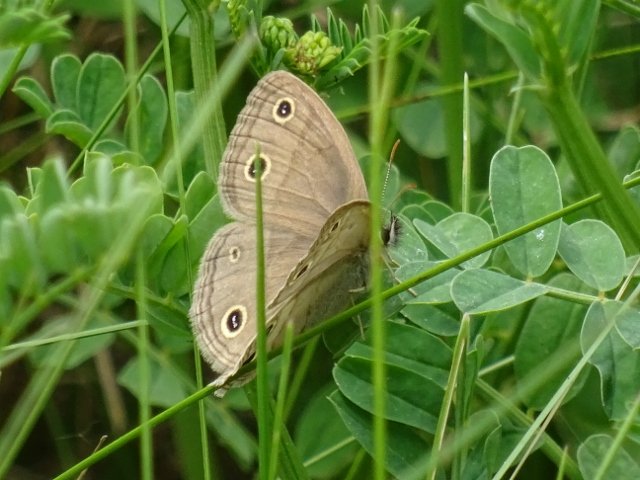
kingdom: Animalia
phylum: Arthropoda
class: Insecta
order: Lepidoptera
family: Nymphalidae
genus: Euptychia
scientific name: Euptychia cymela
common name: Little Wood Satyr
